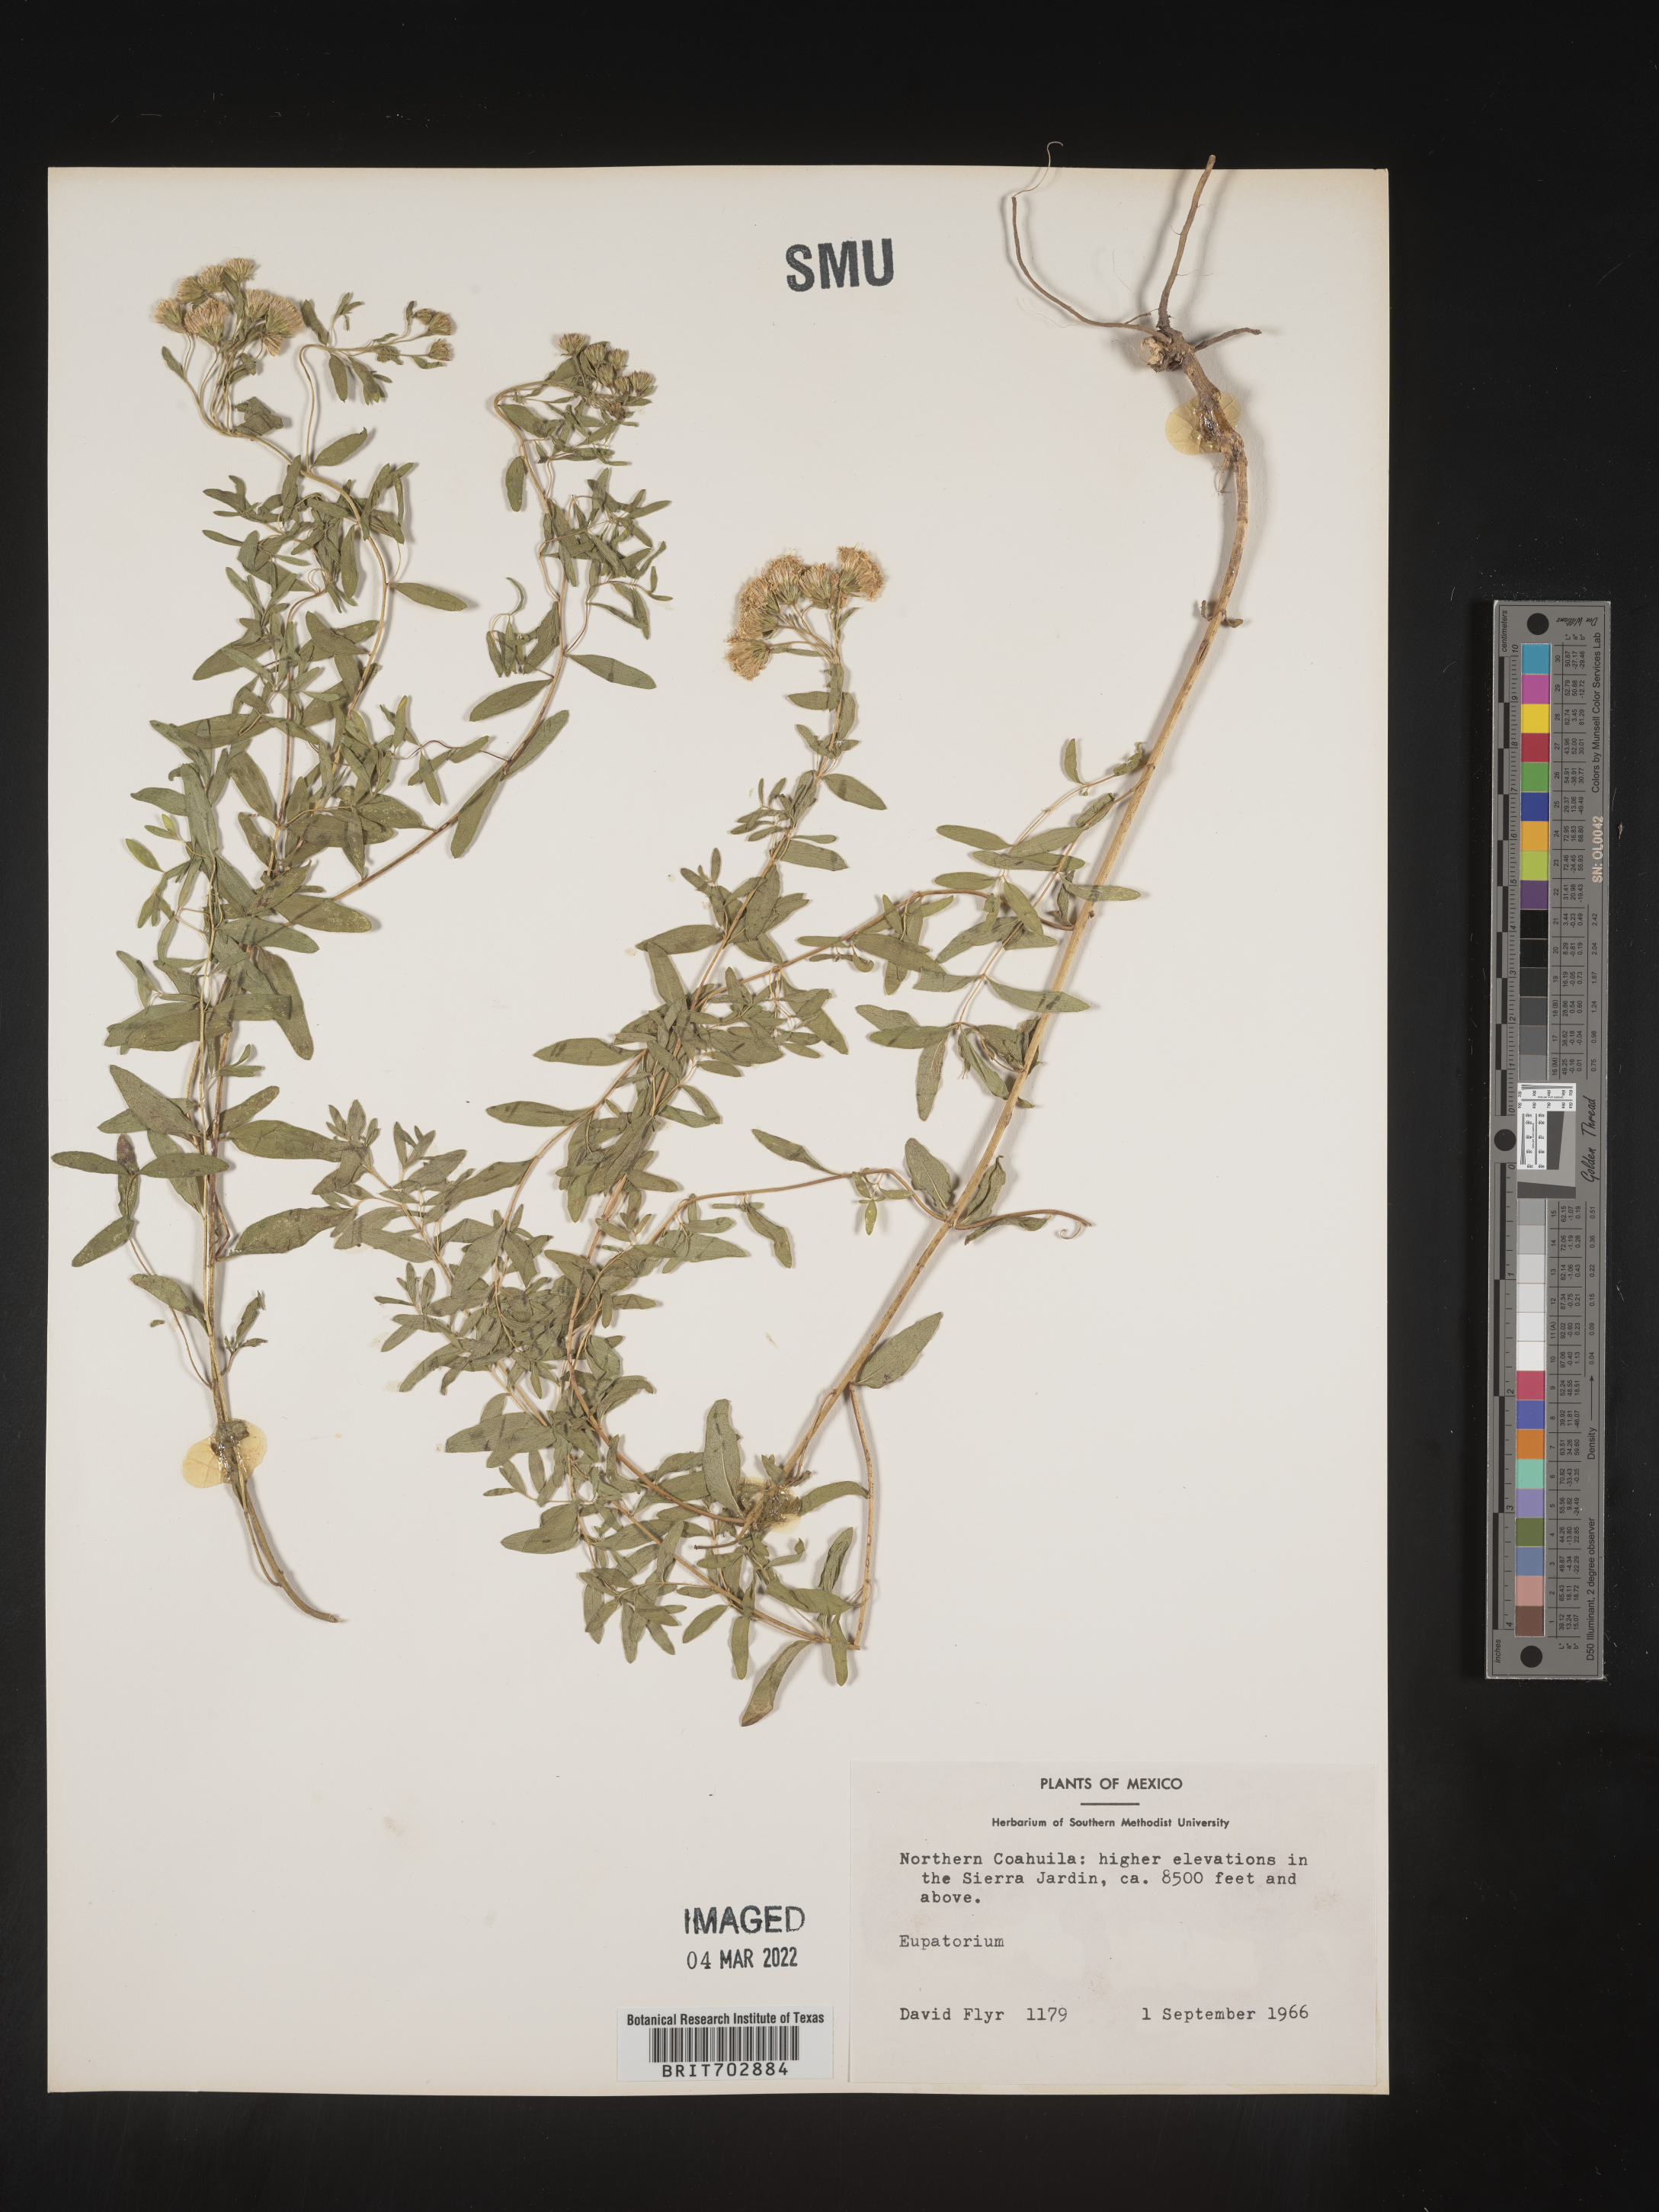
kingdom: Plantae
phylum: Tracheophyta
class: Magnoliopsida
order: Asterales
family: Asteraceae
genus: Eupatorium
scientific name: Eupatorium
